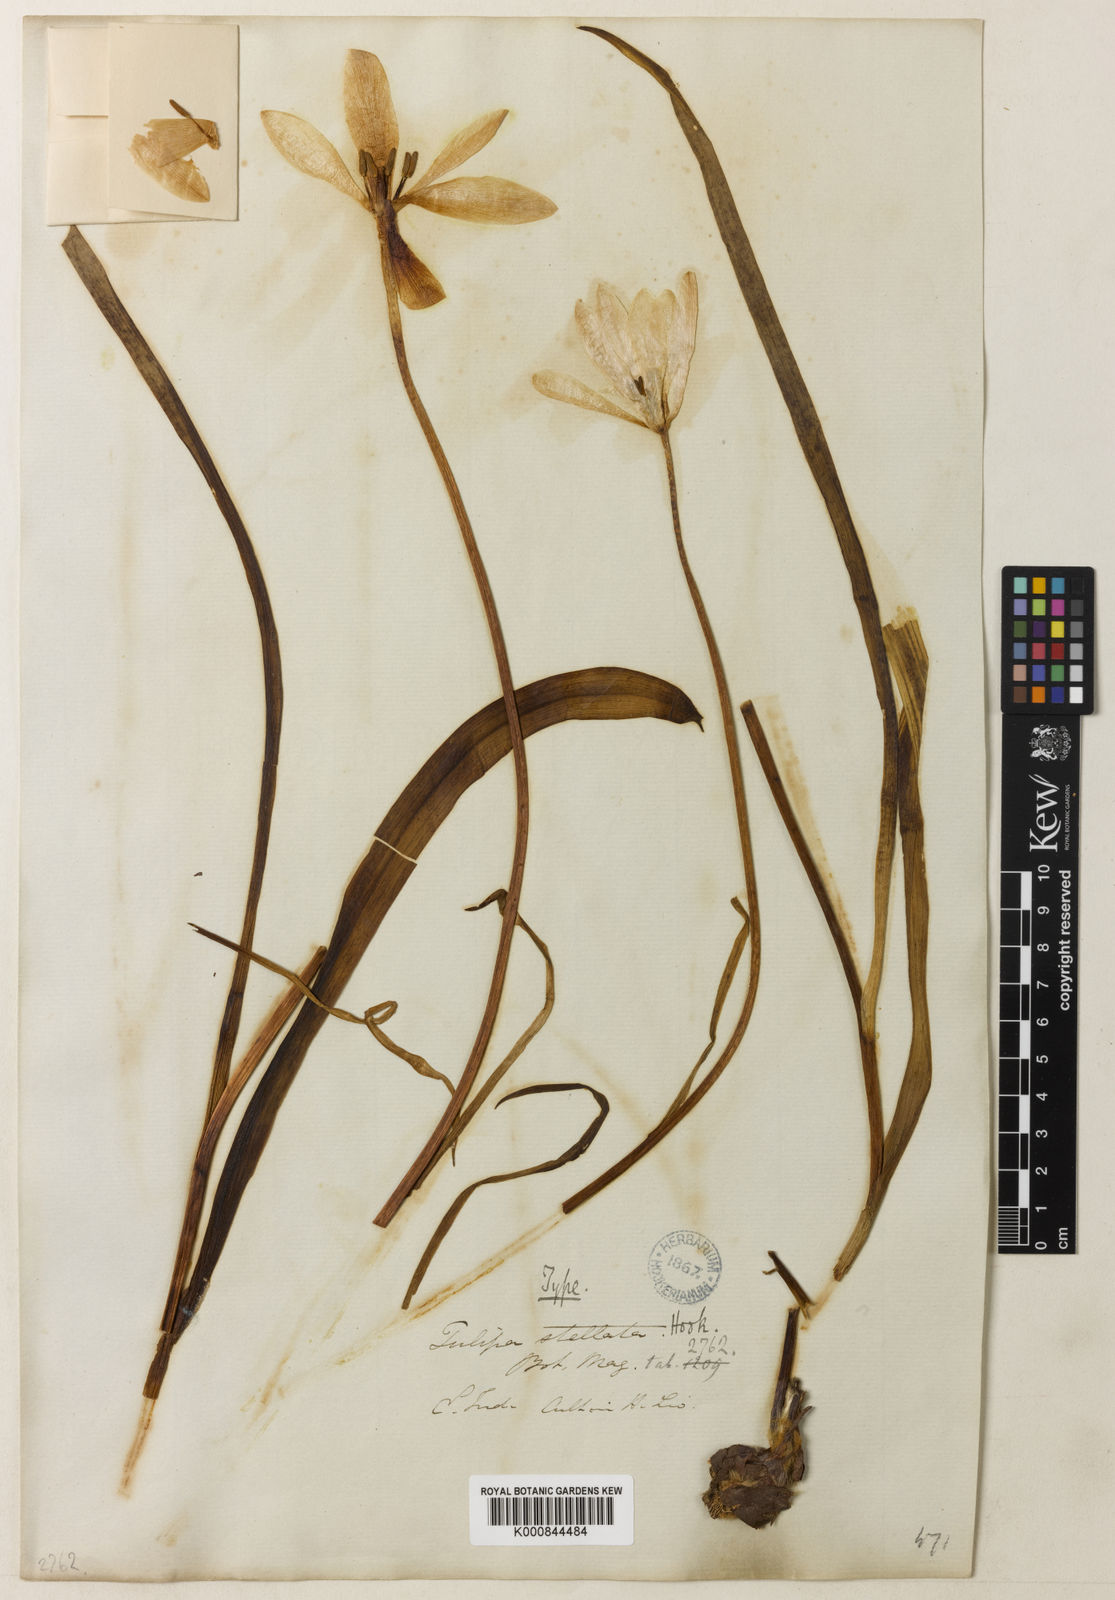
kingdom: Plantae
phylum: Tracheophyta
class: Liliopsida
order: Liliales
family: Liliaceae
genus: Tulipa
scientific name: Tulipa
